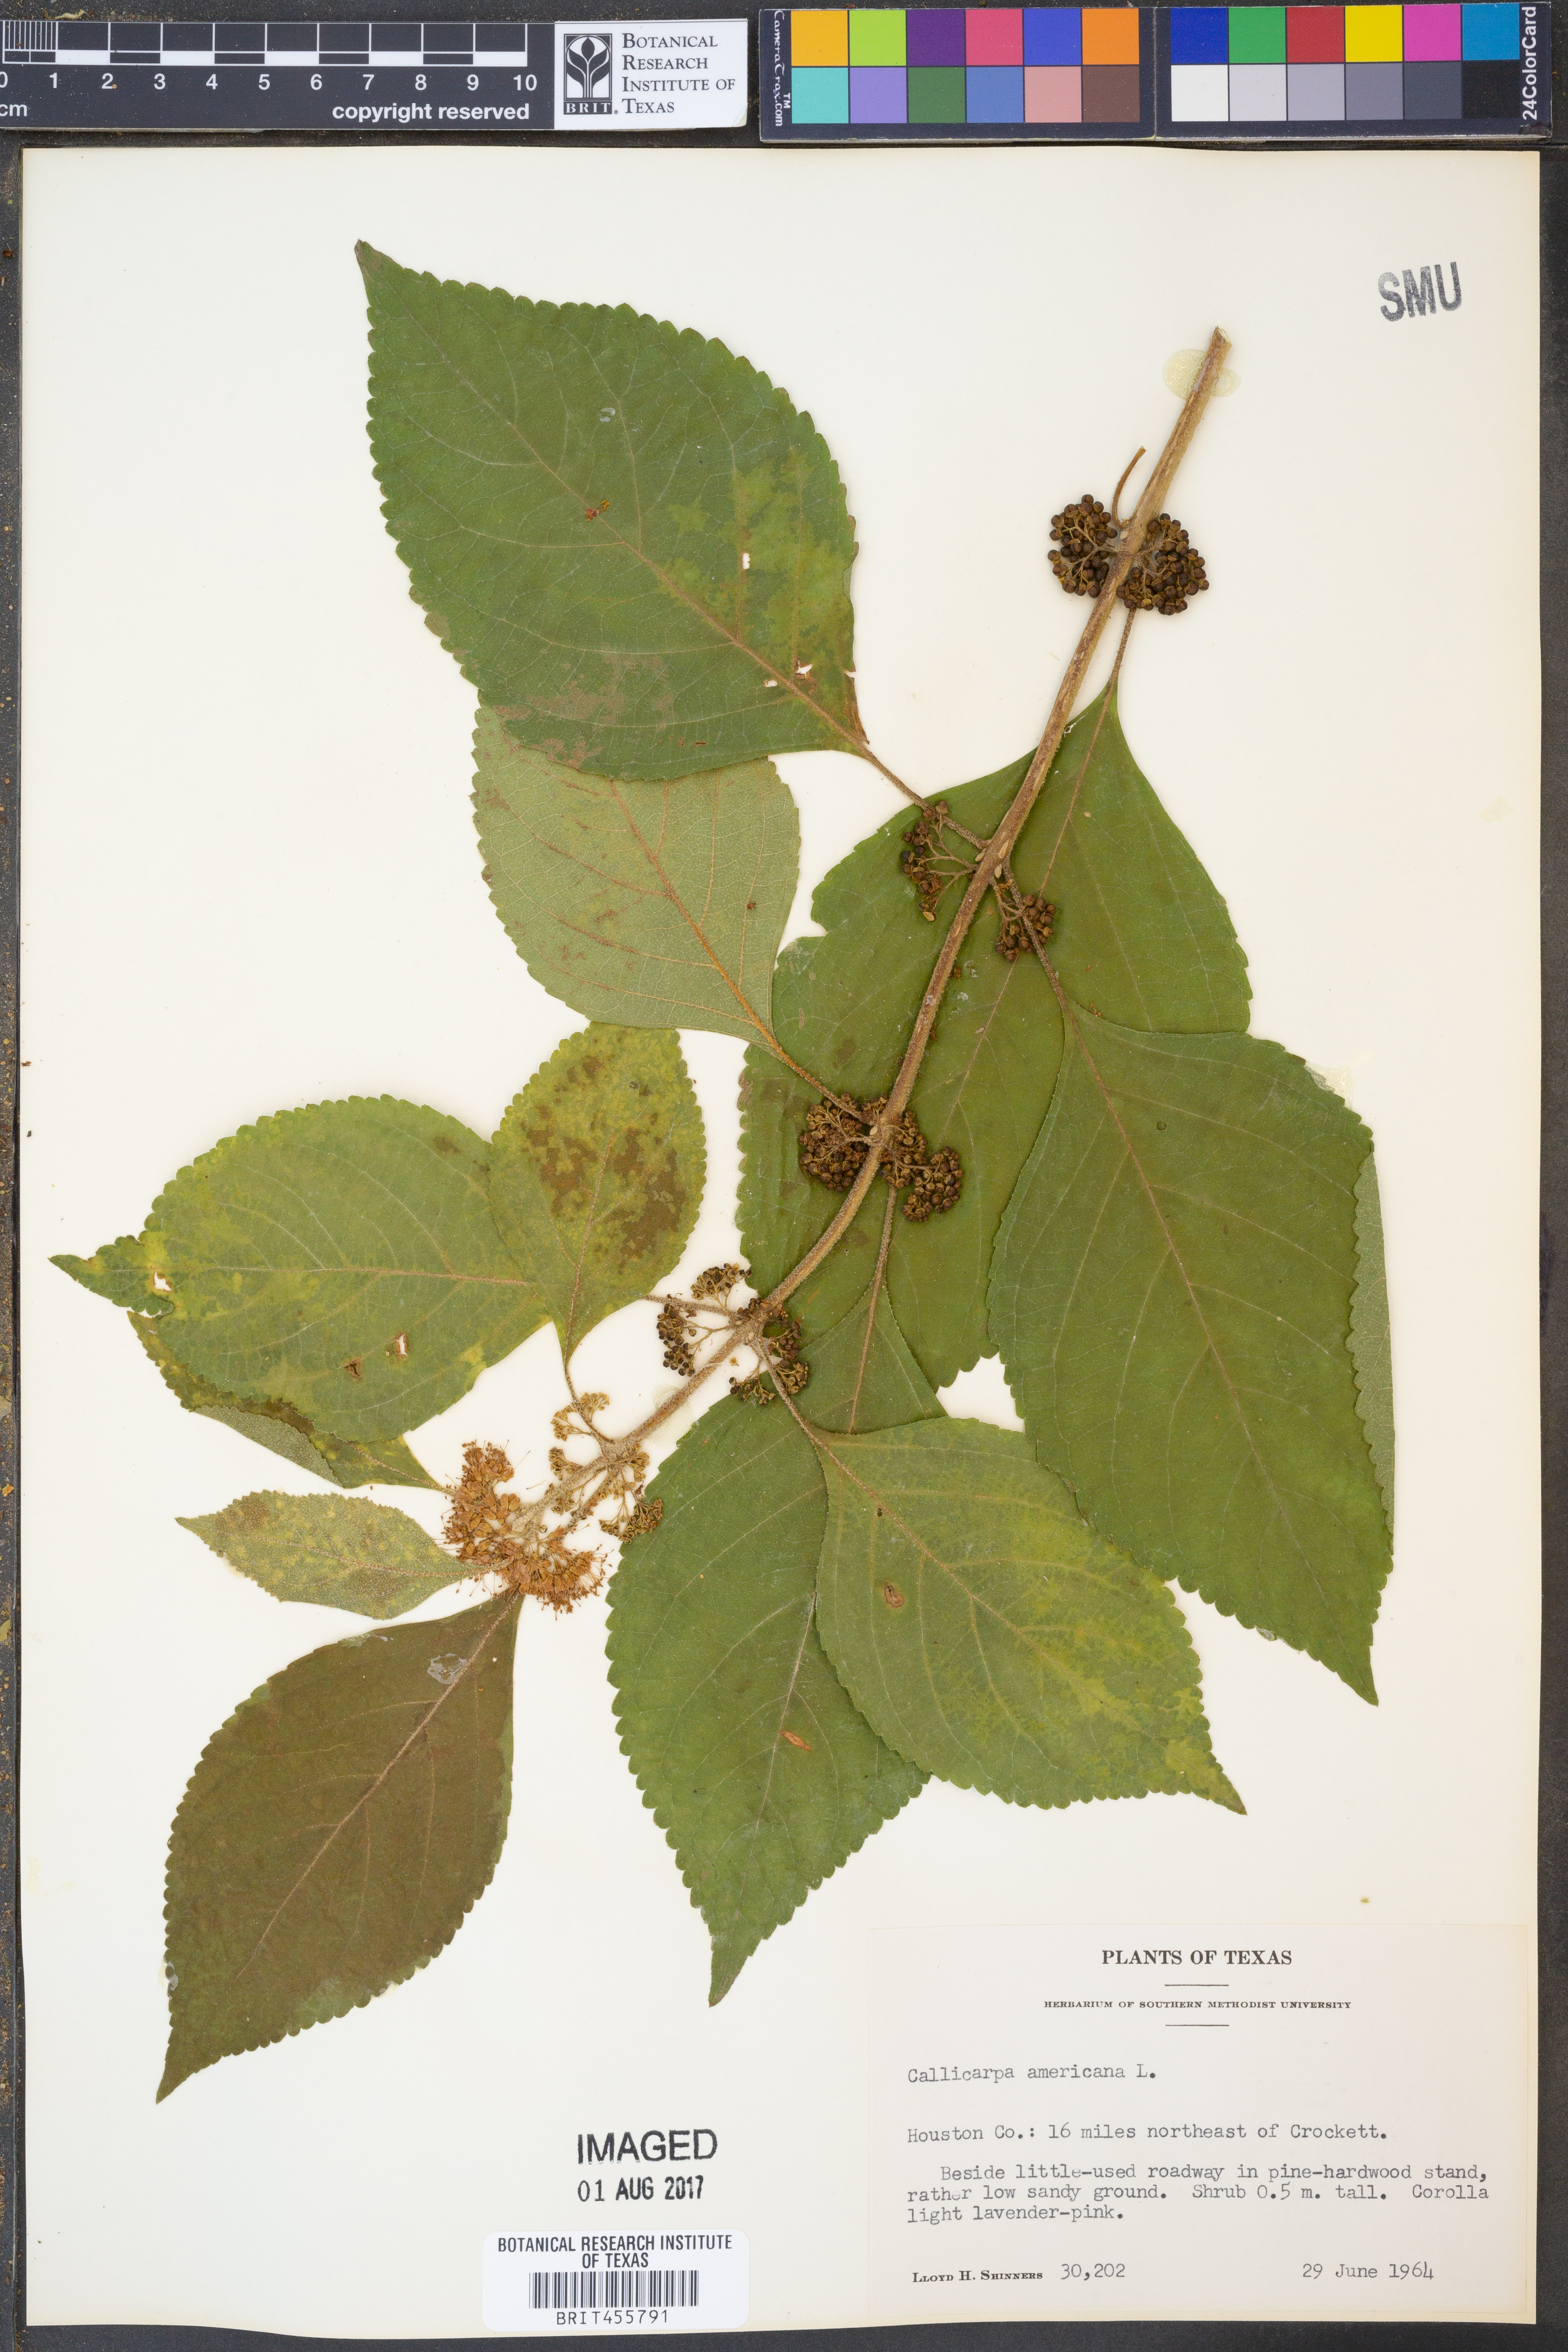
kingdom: Plantae
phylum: Tracheophyta
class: Magnoliopsida
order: Lamiales
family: Lamiaceae
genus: Callicarpa
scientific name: Callicarpa americana
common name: American beautyberry
